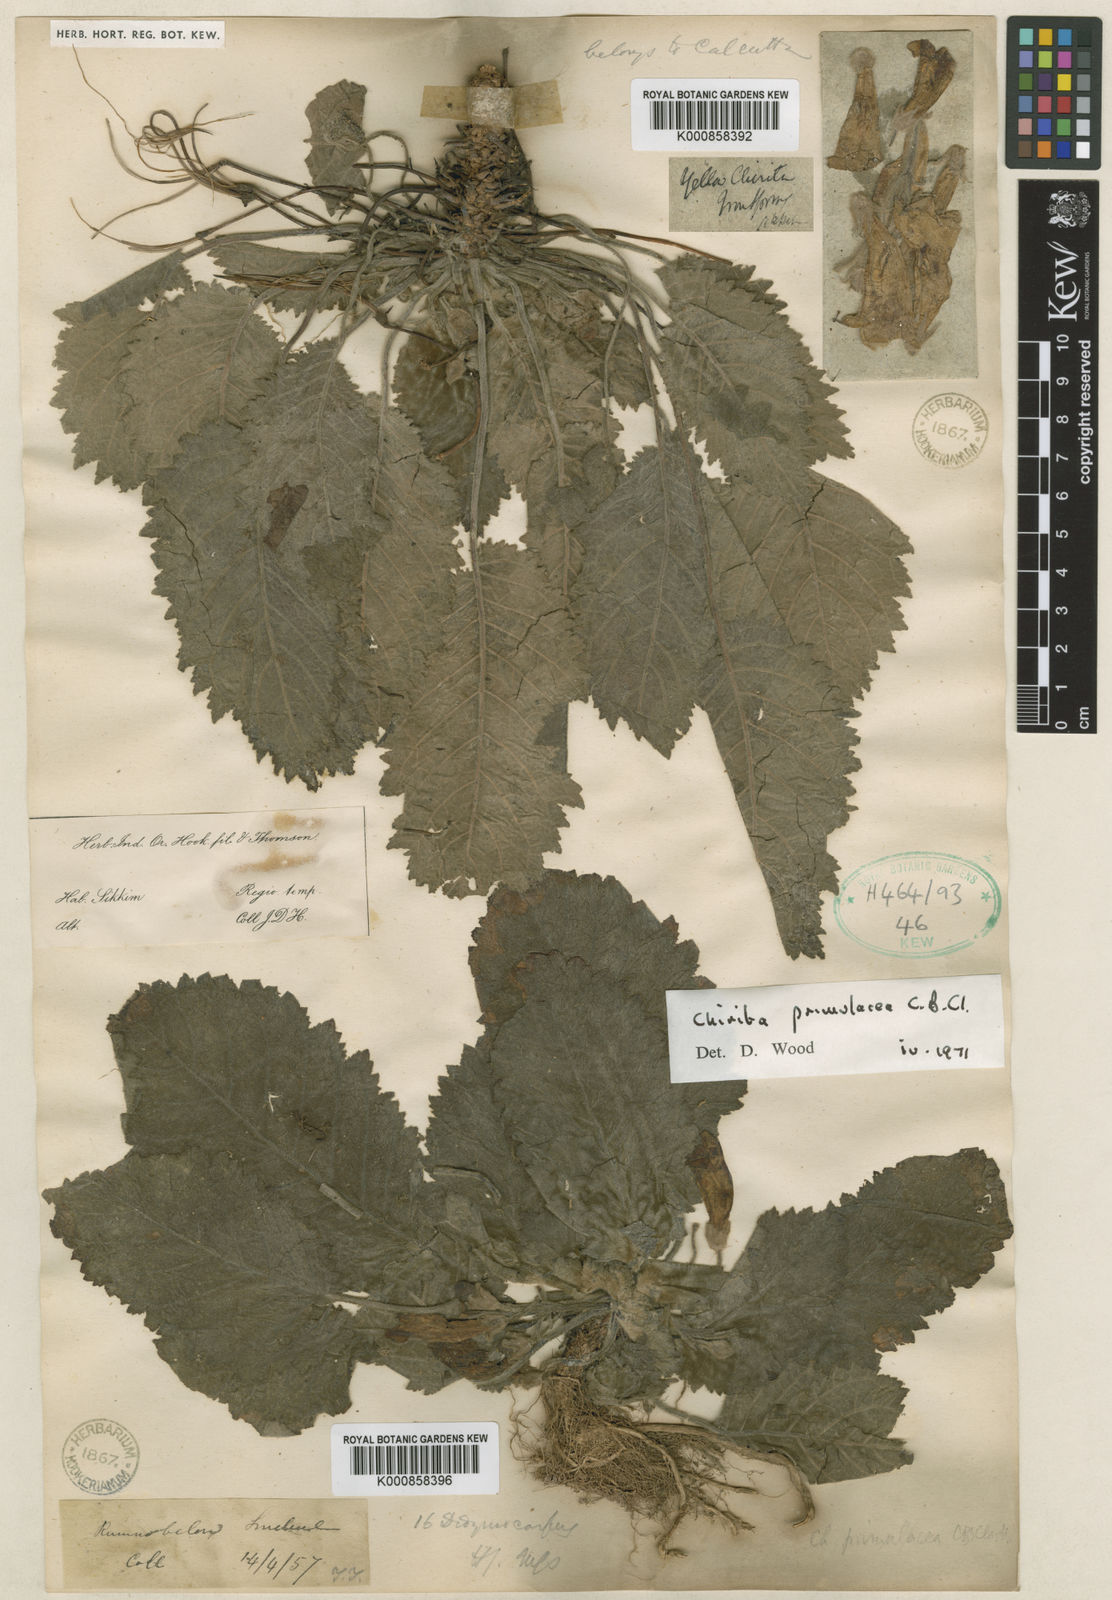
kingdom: Plantae
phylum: Tracheophyta
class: Magnoliopsida
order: Lamiales
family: Gesneriaceae
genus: Henckelia
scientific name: Henckelia primulacea
